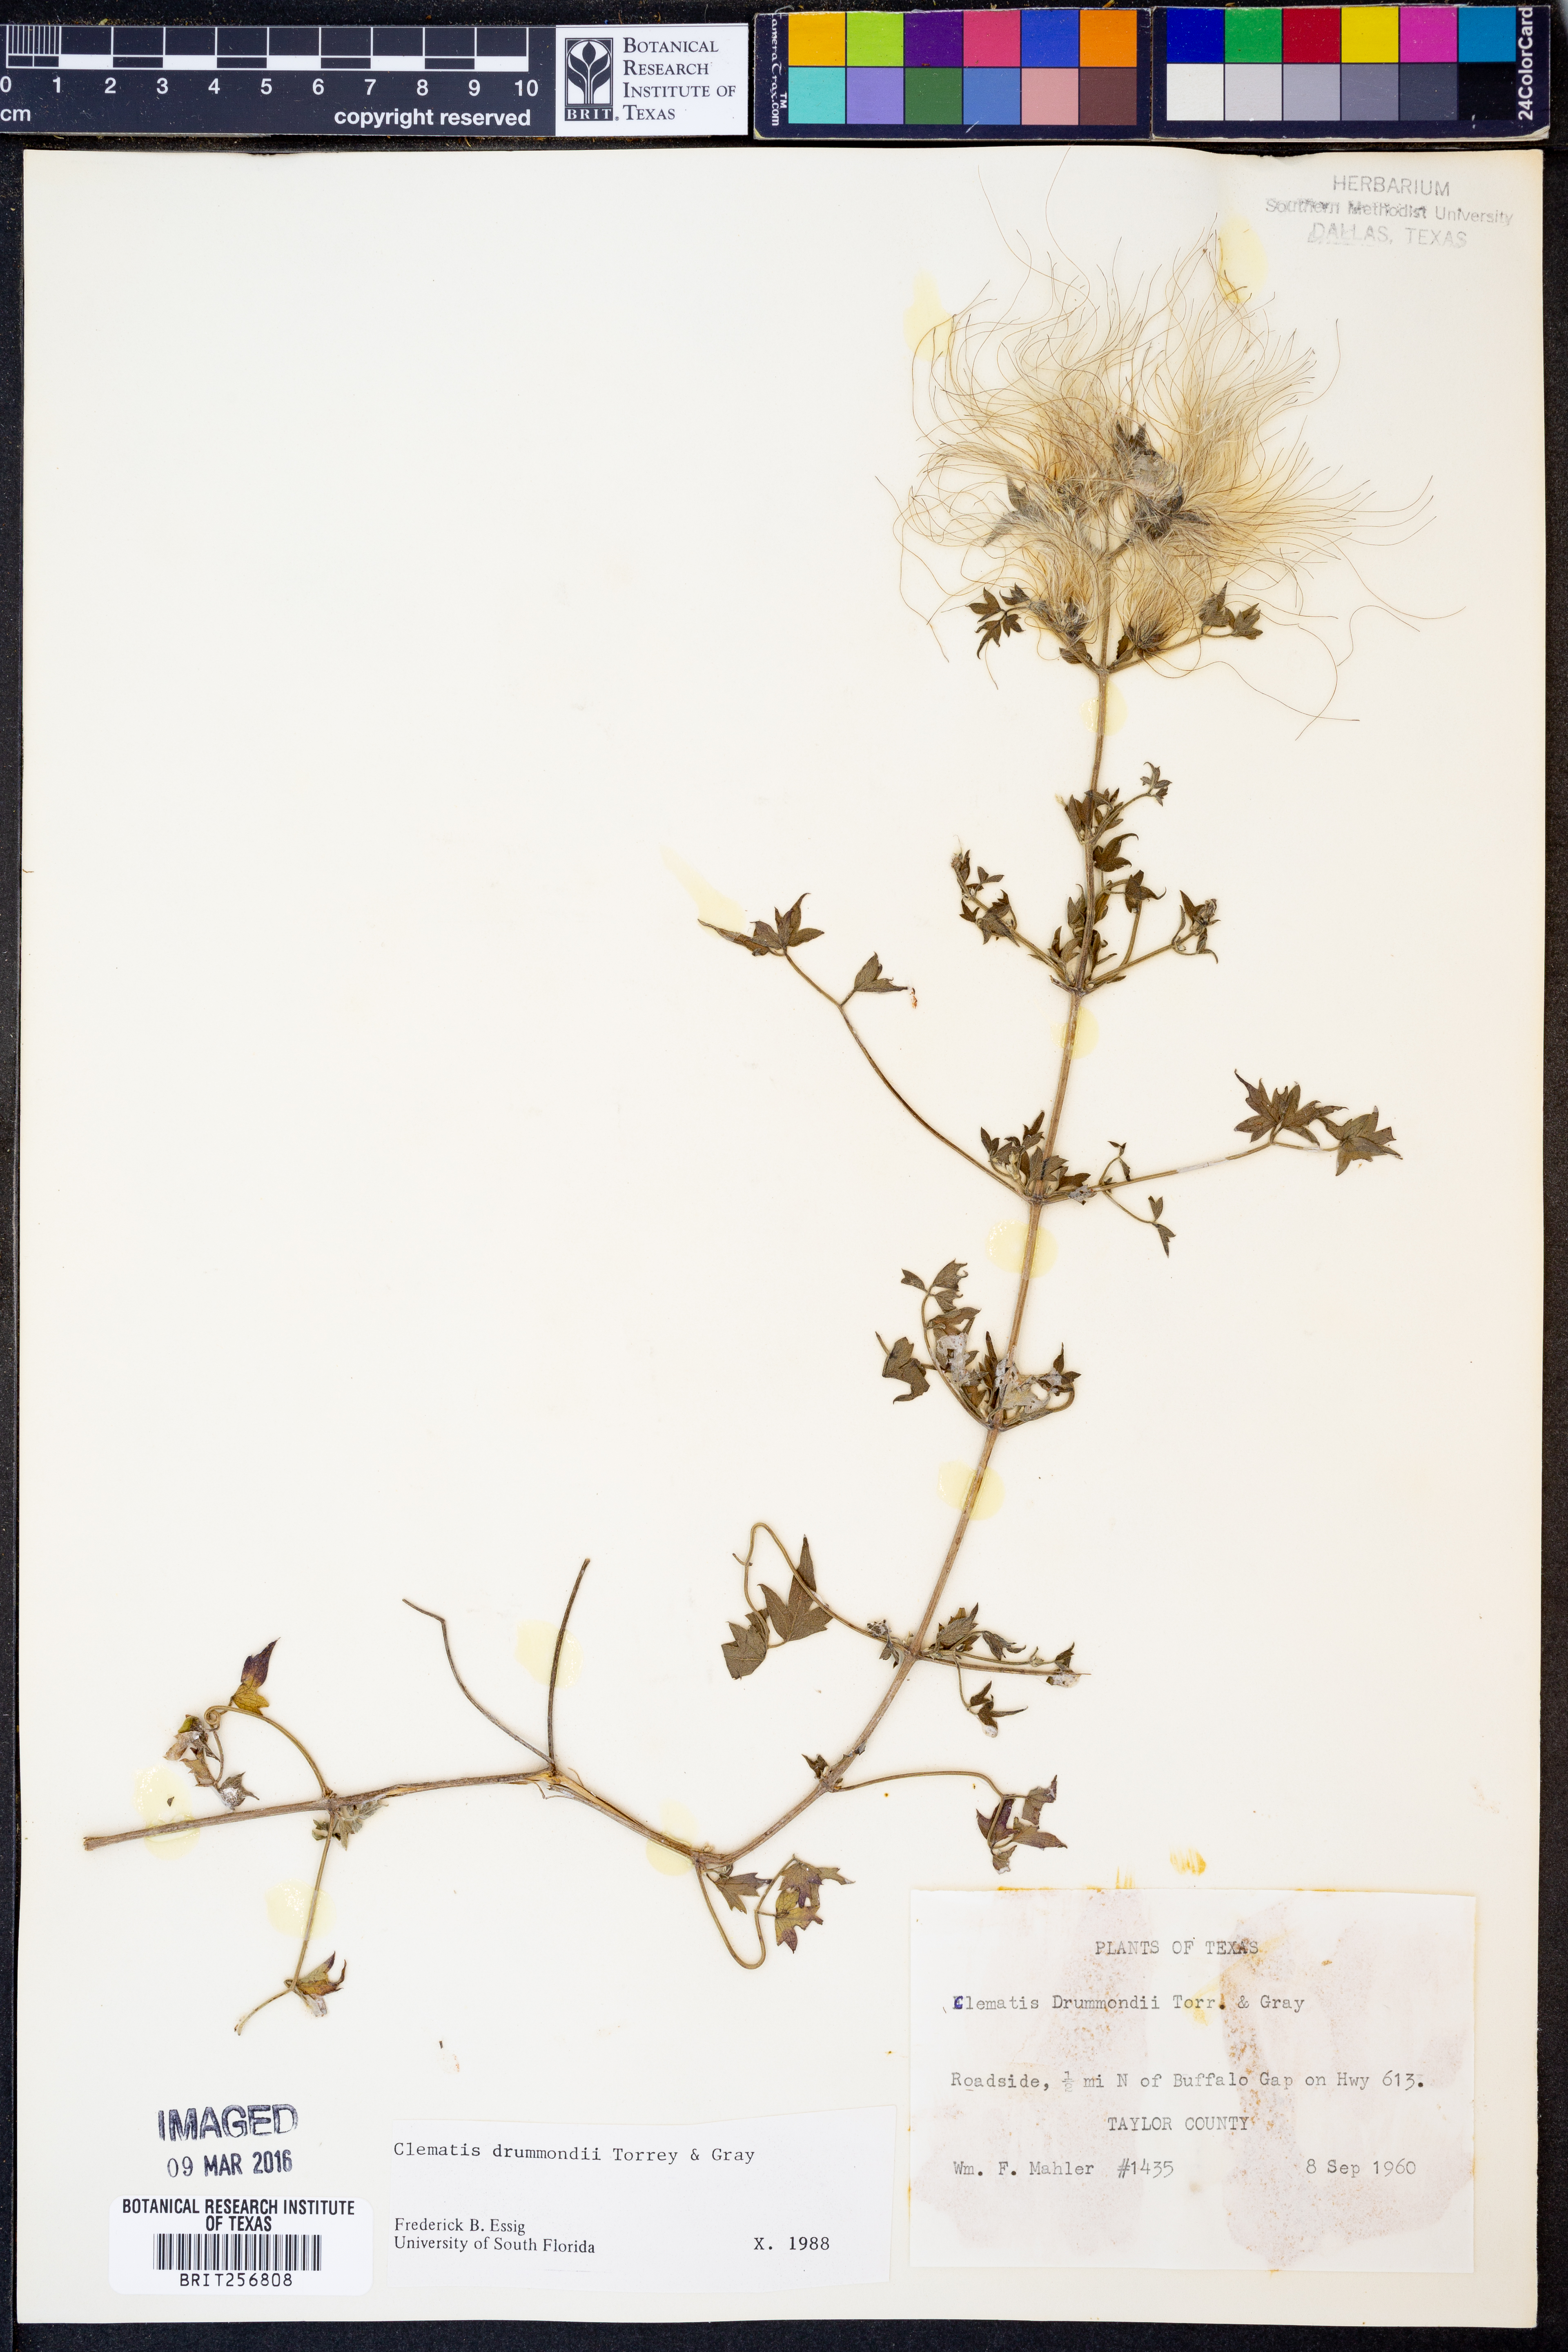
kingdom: Plantae
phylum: Tracheophyta
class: Magnoliopsida
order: Ranunculales
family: Ranunculaceae
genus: Clematis
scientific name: Clematis drummondii
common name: Texas virgin's bower
